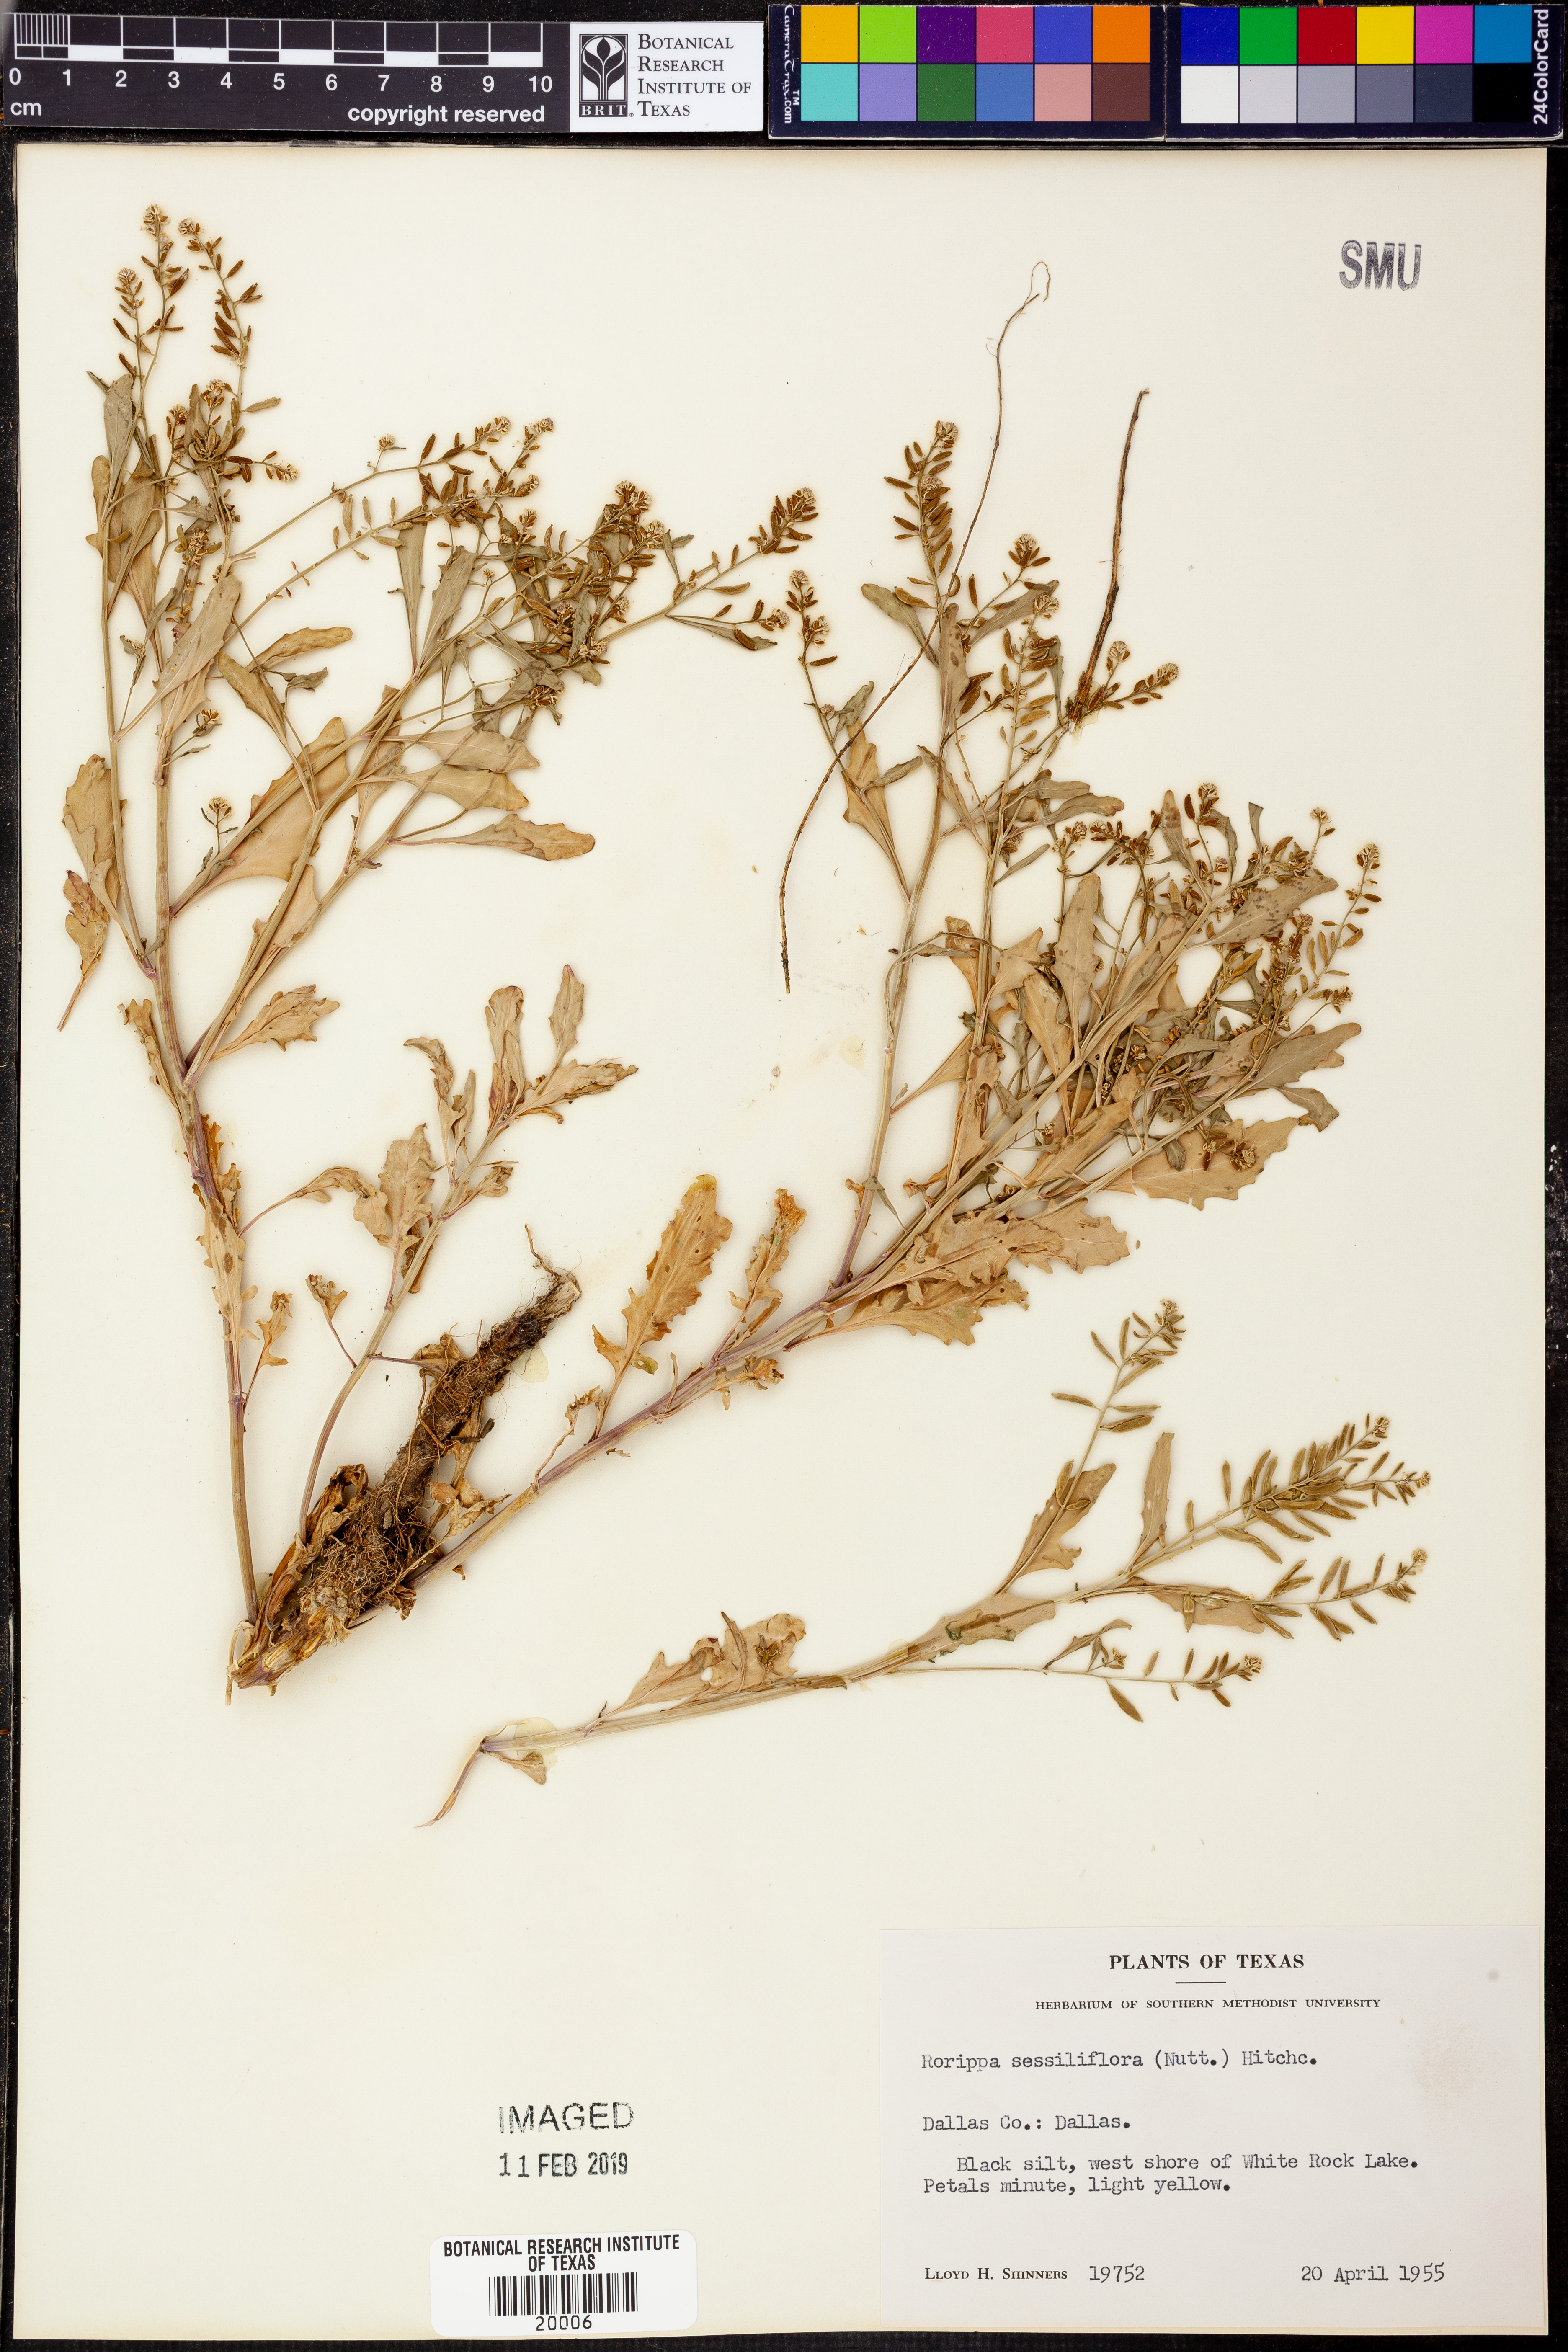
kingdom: Plantae
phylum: Tracheophyta
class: Magnoliopsida
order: Brassicales
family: Brassicaceae
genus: Rorippa
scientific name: Rorippa sessiliflora
